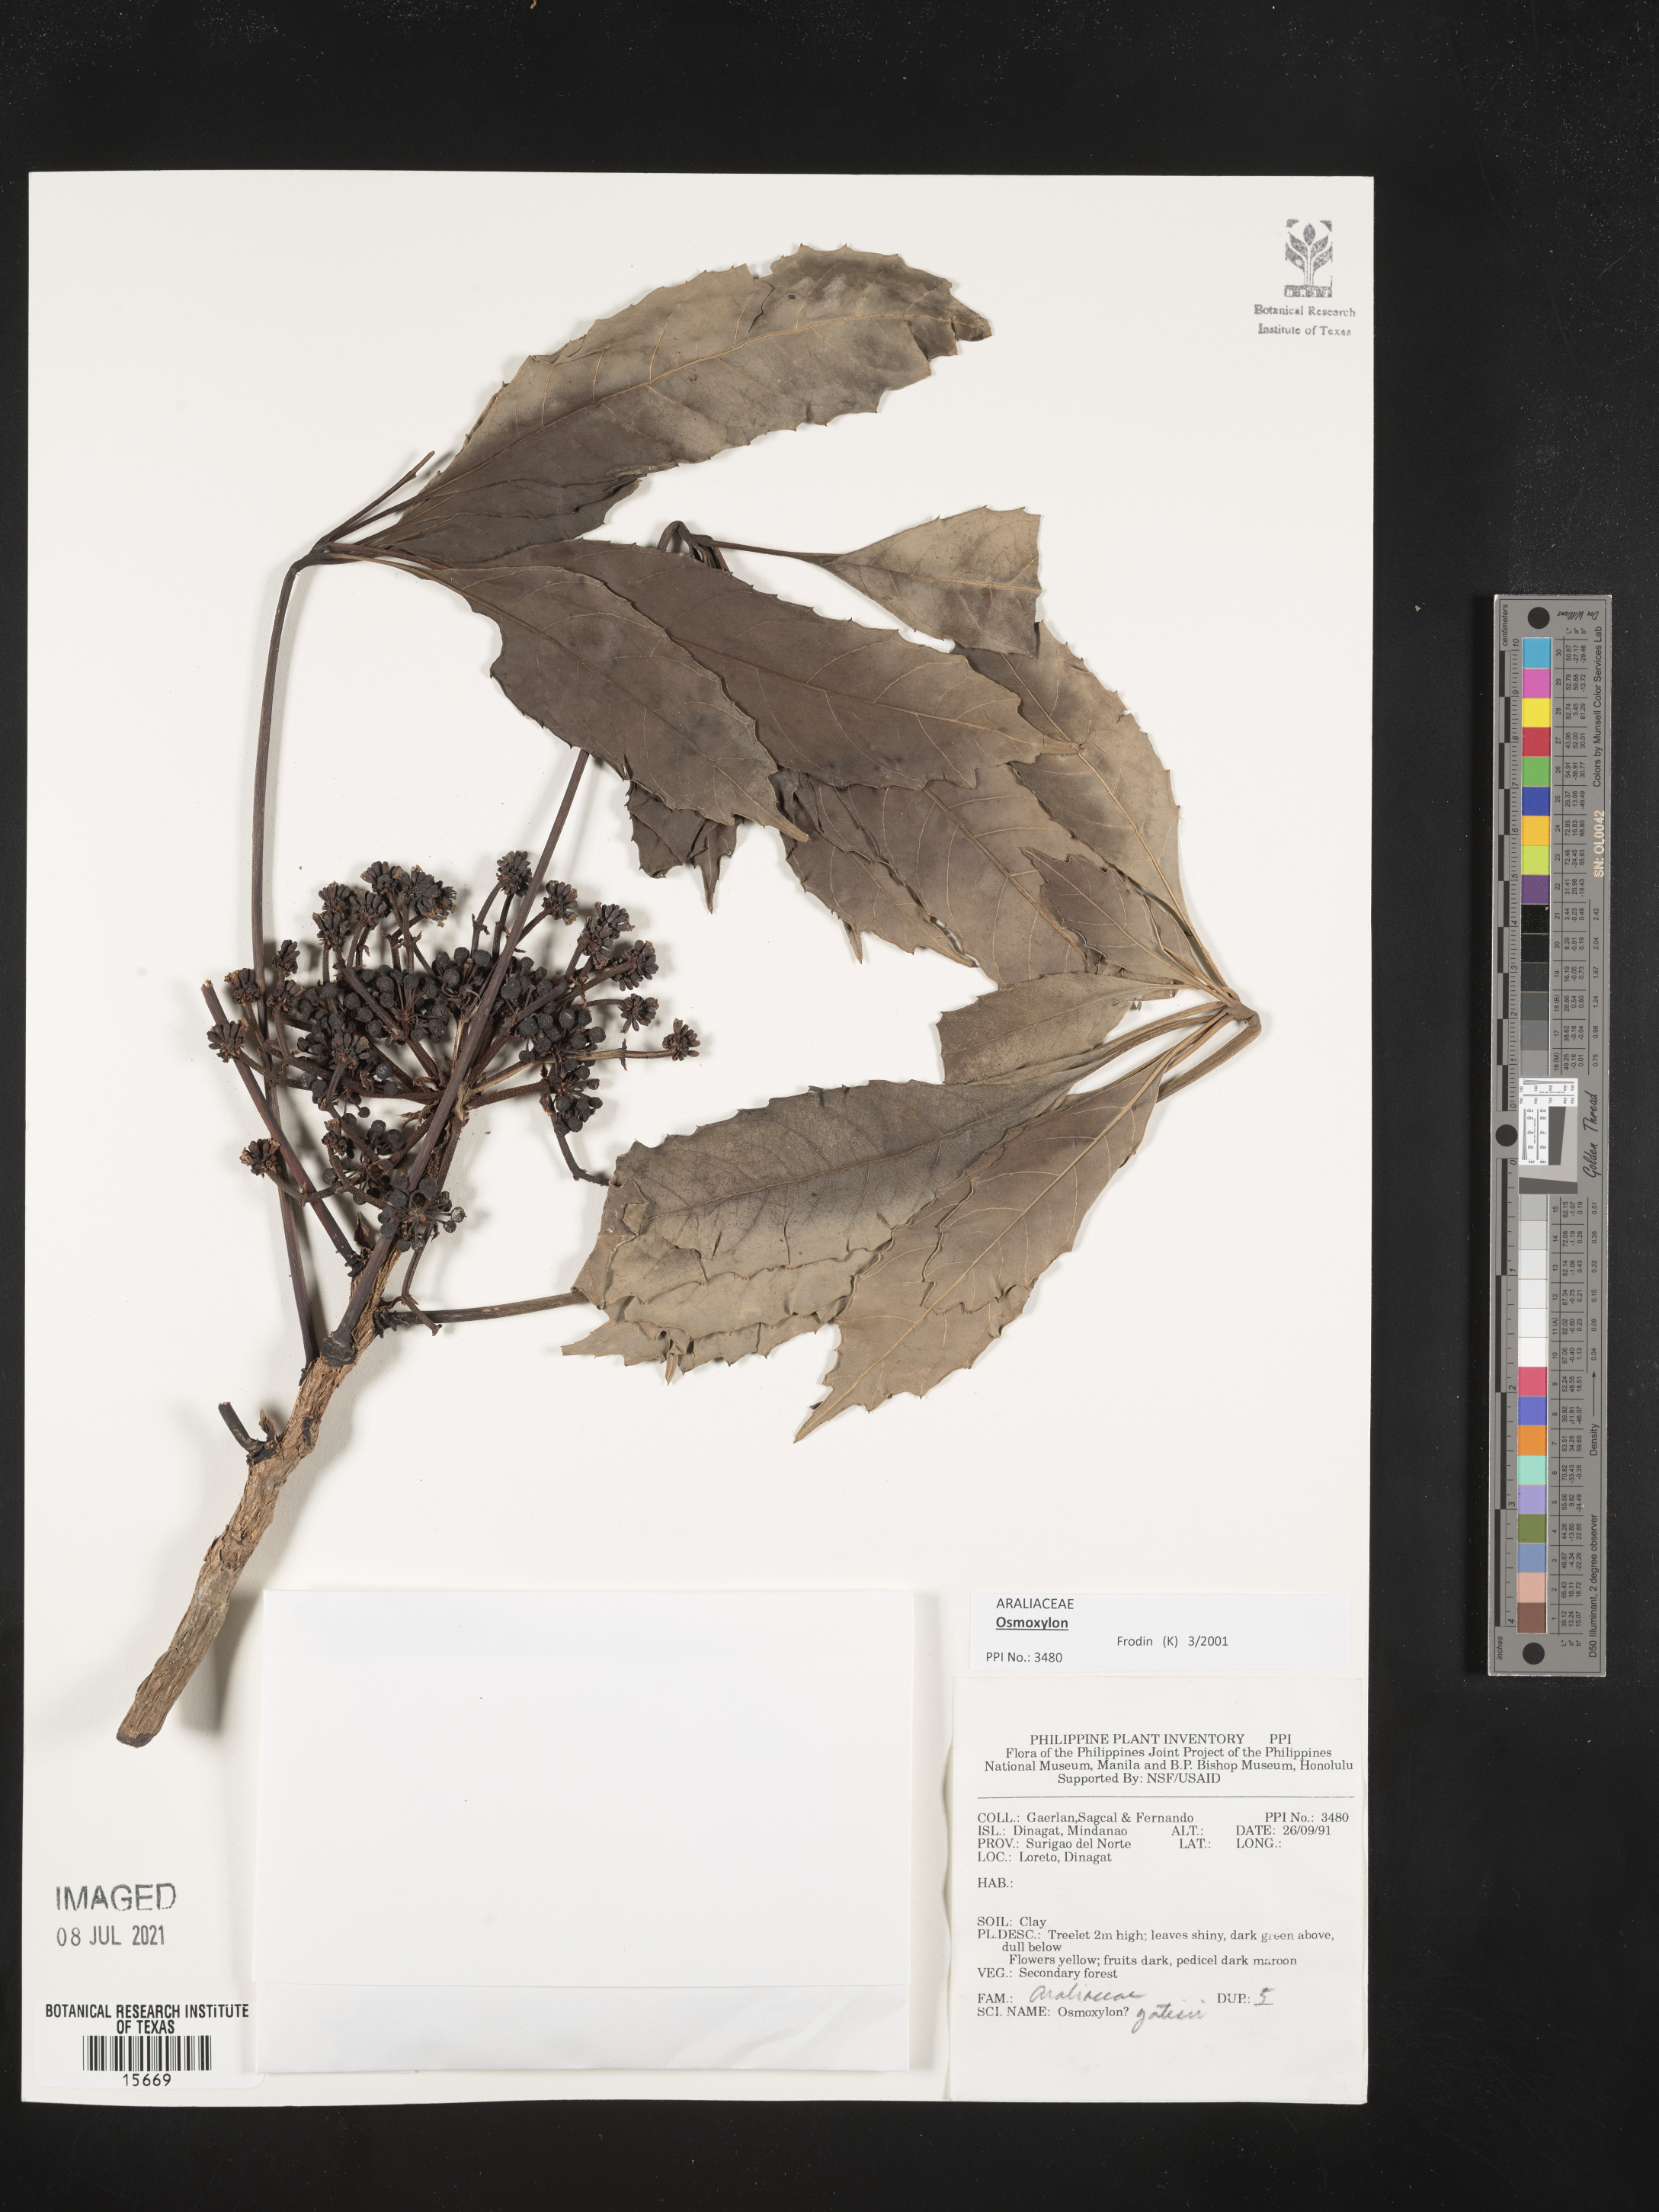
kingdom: Plantae
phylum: Tracheophyta
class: Magnoliopsida
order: Apiales
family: Araliaceae
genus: Osmoxylon
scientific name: Osmoxylon yatesii
